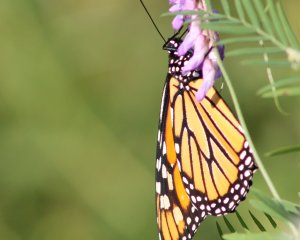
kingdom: Animalia
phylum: Arthropoda
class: Insecta
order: Lepidoptera
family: Nymphalidae
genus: Danaus
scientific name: Danaus plexippus
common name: Monarch
